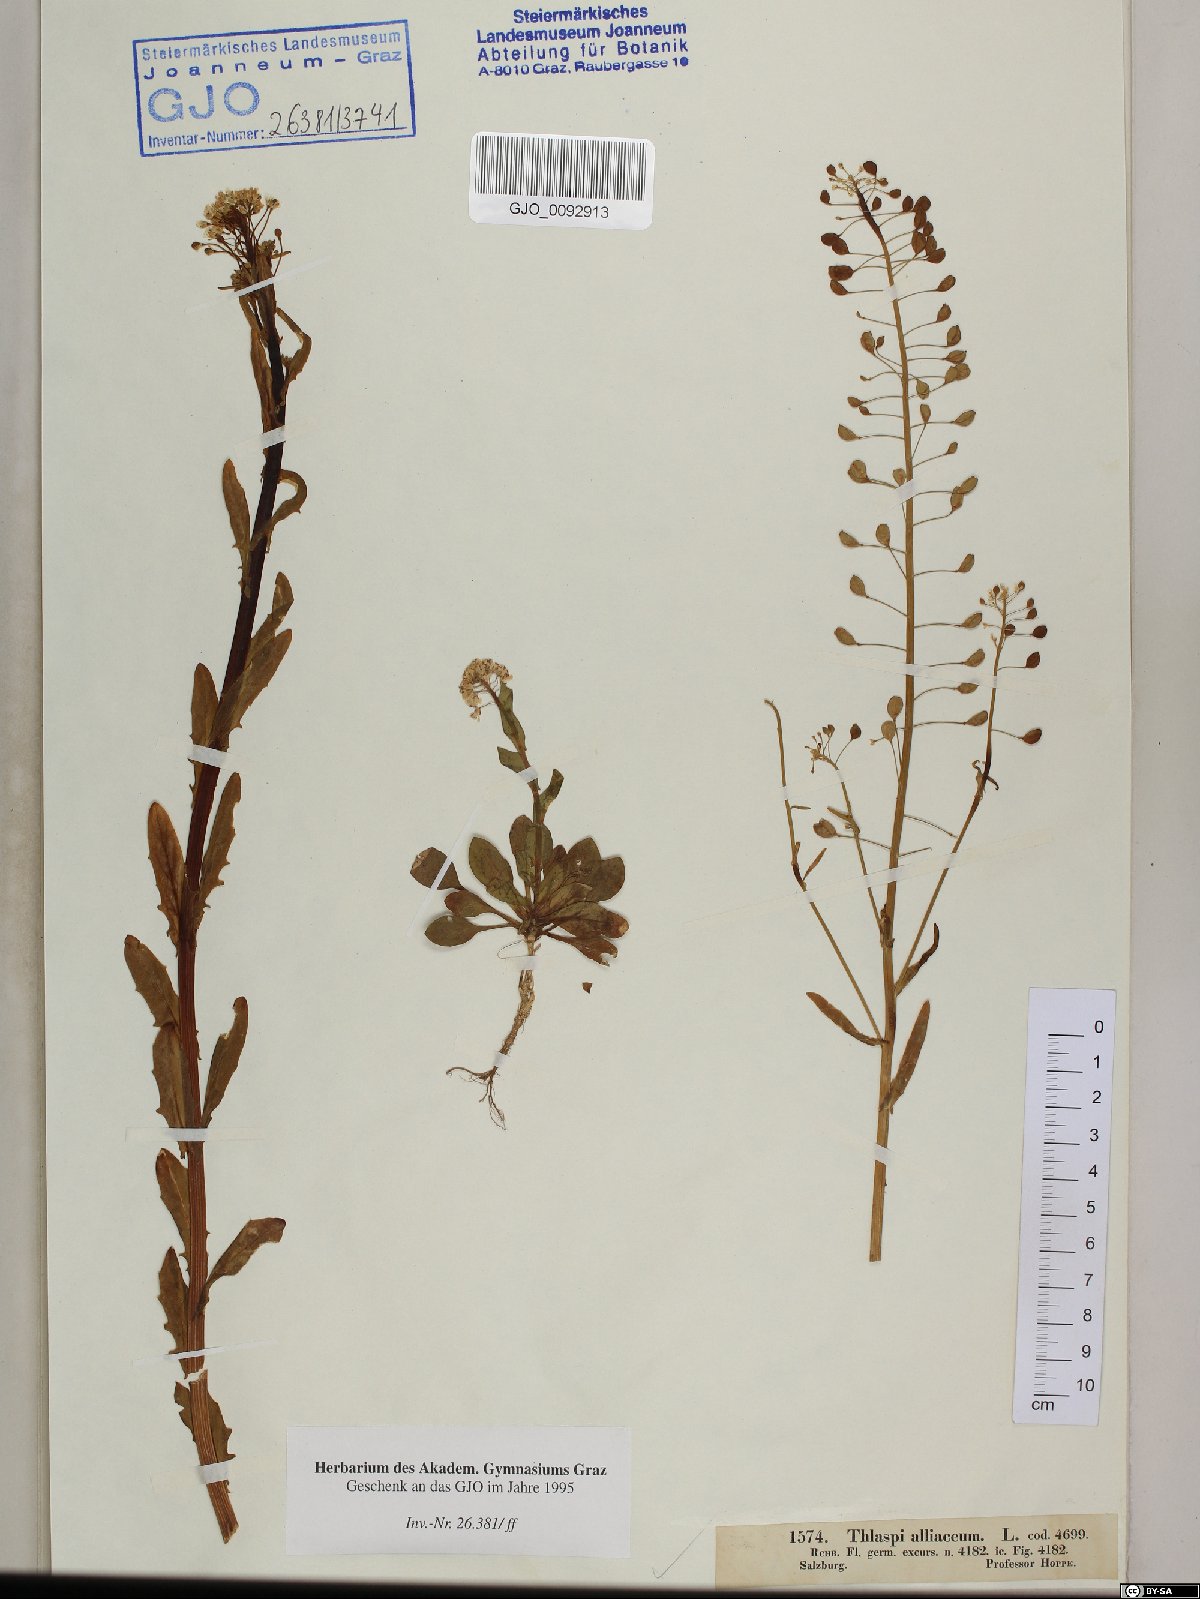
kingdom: Plantae
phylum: Tracheophyta
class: Magnoliopsida
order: Brassicales
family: Brassicaceae
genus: Mummenhoffia
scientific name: Mummenhoffia alliacea
